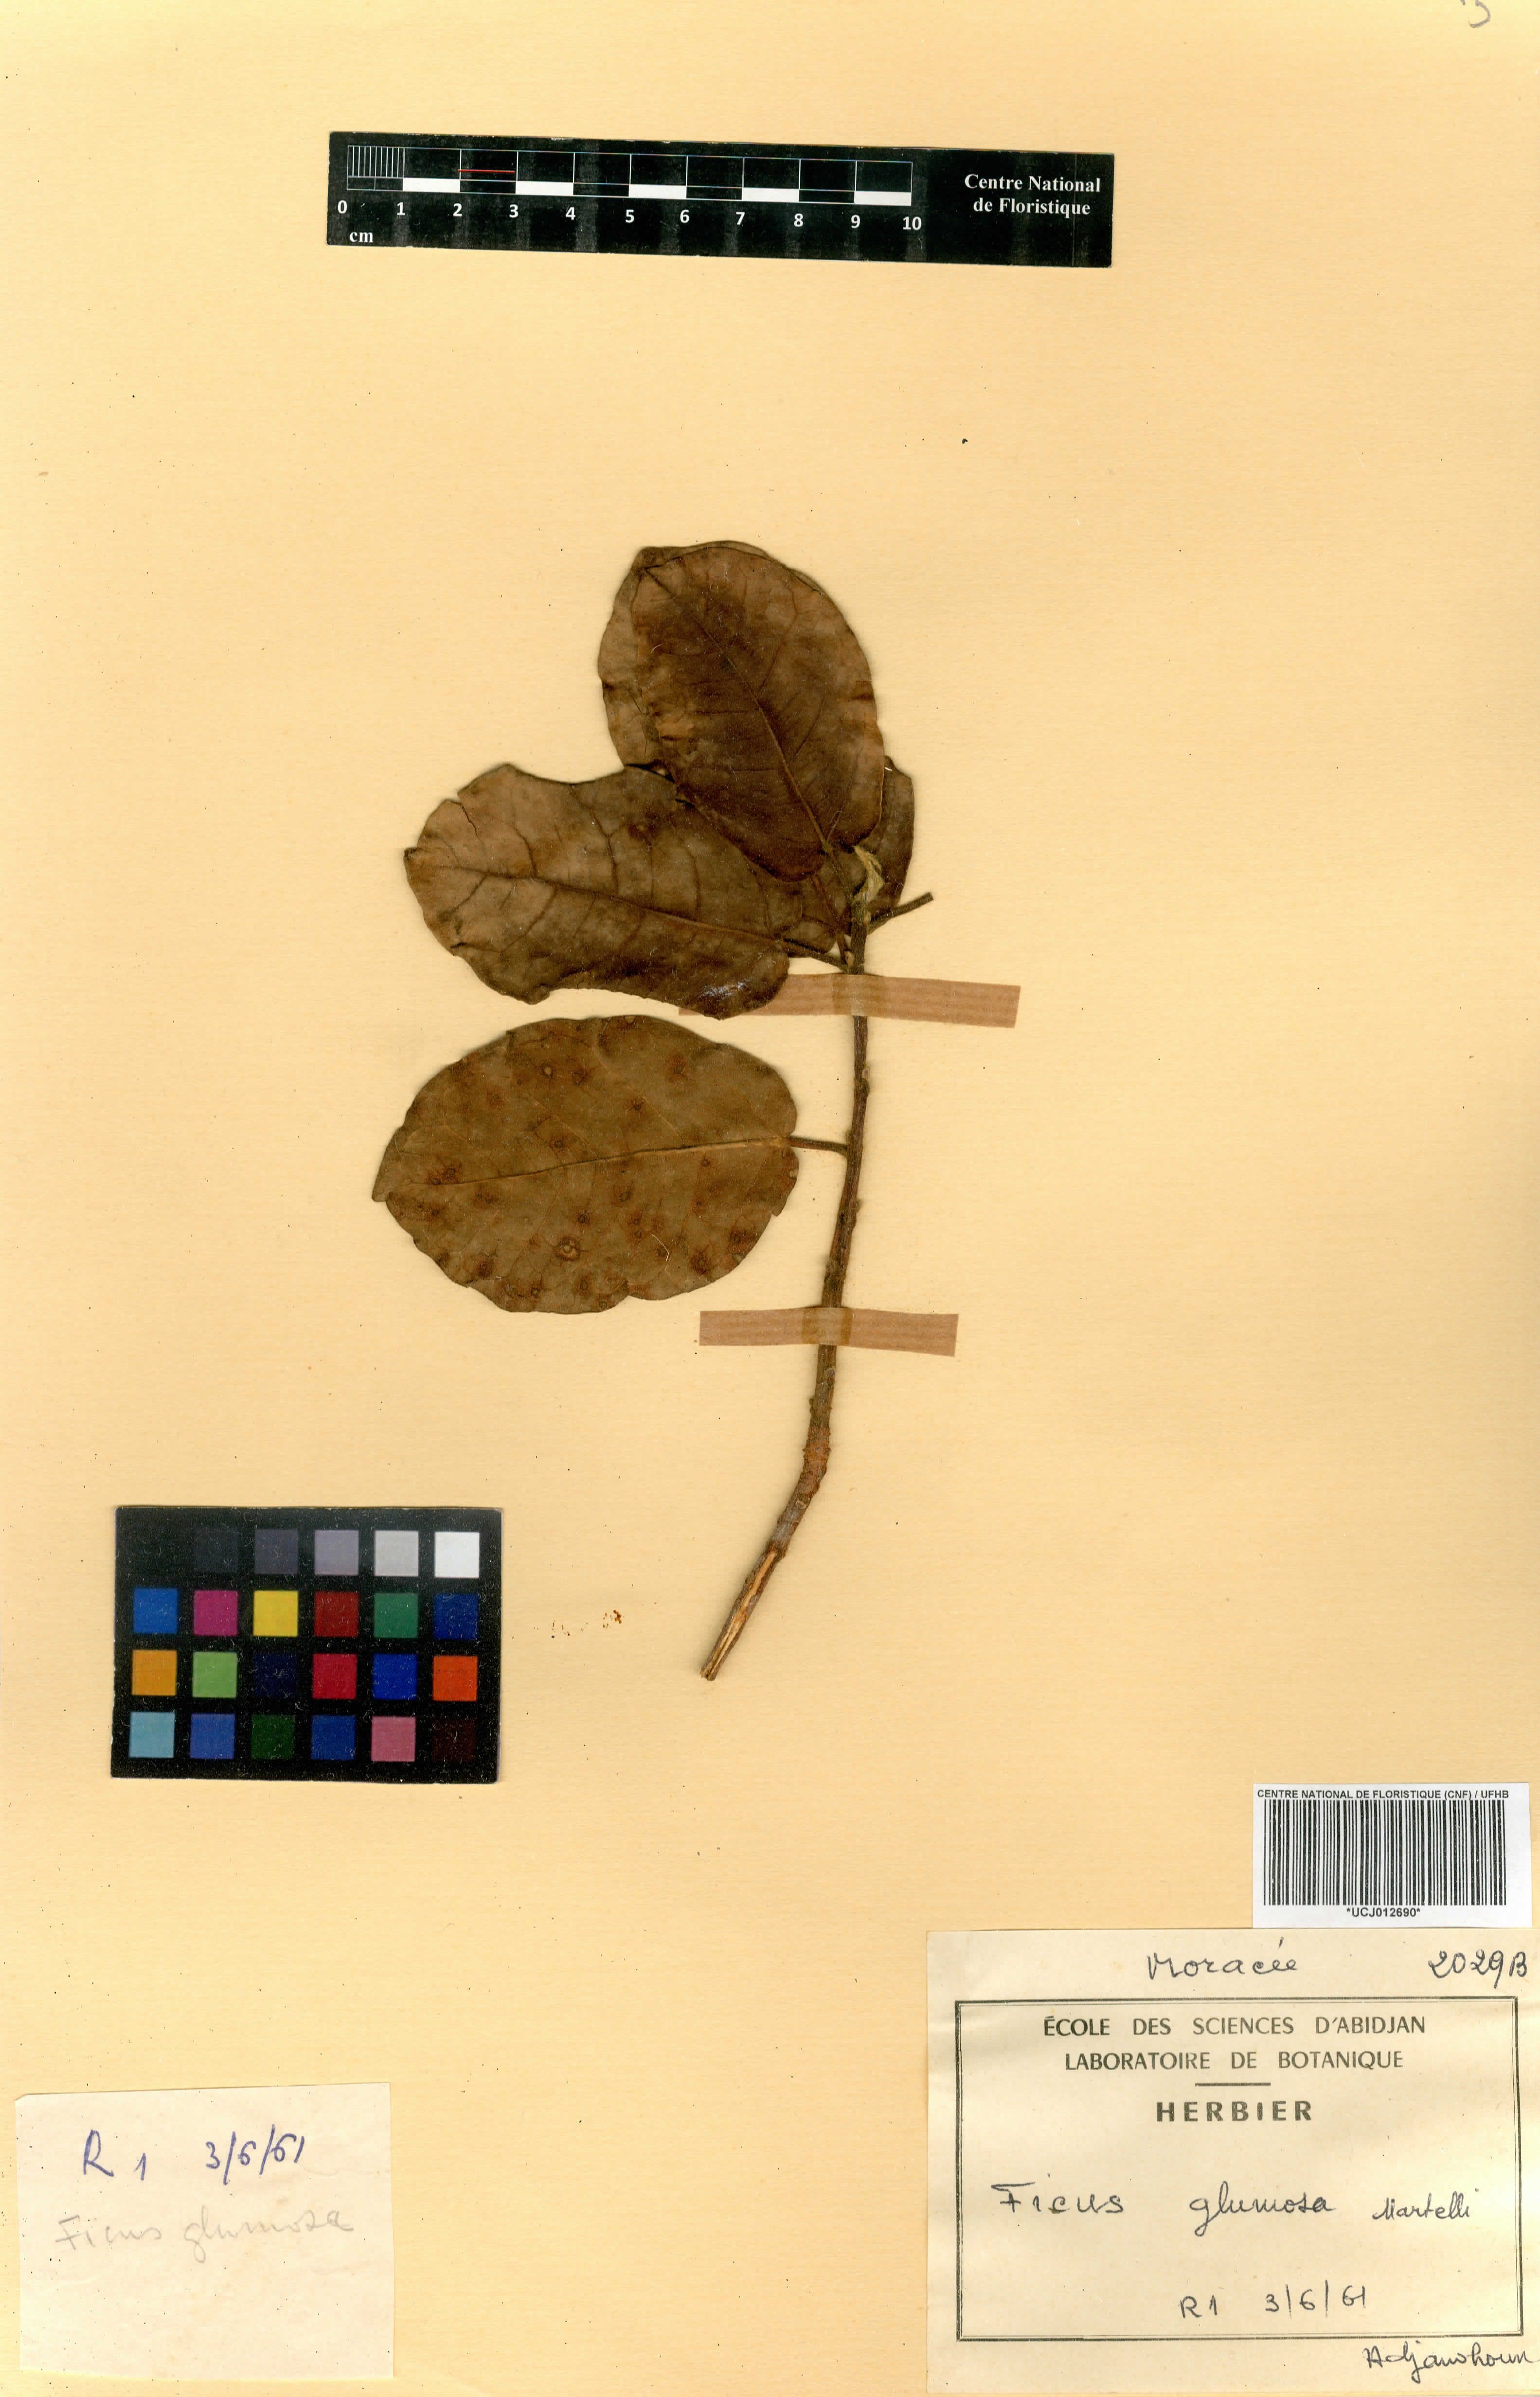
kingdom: Plantae
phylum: Tracheophyta
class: Magnoliopsida
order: Rosales
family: Moraceae
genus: Ficus
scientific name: Ficus glumosa
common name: Hairy rock fig
